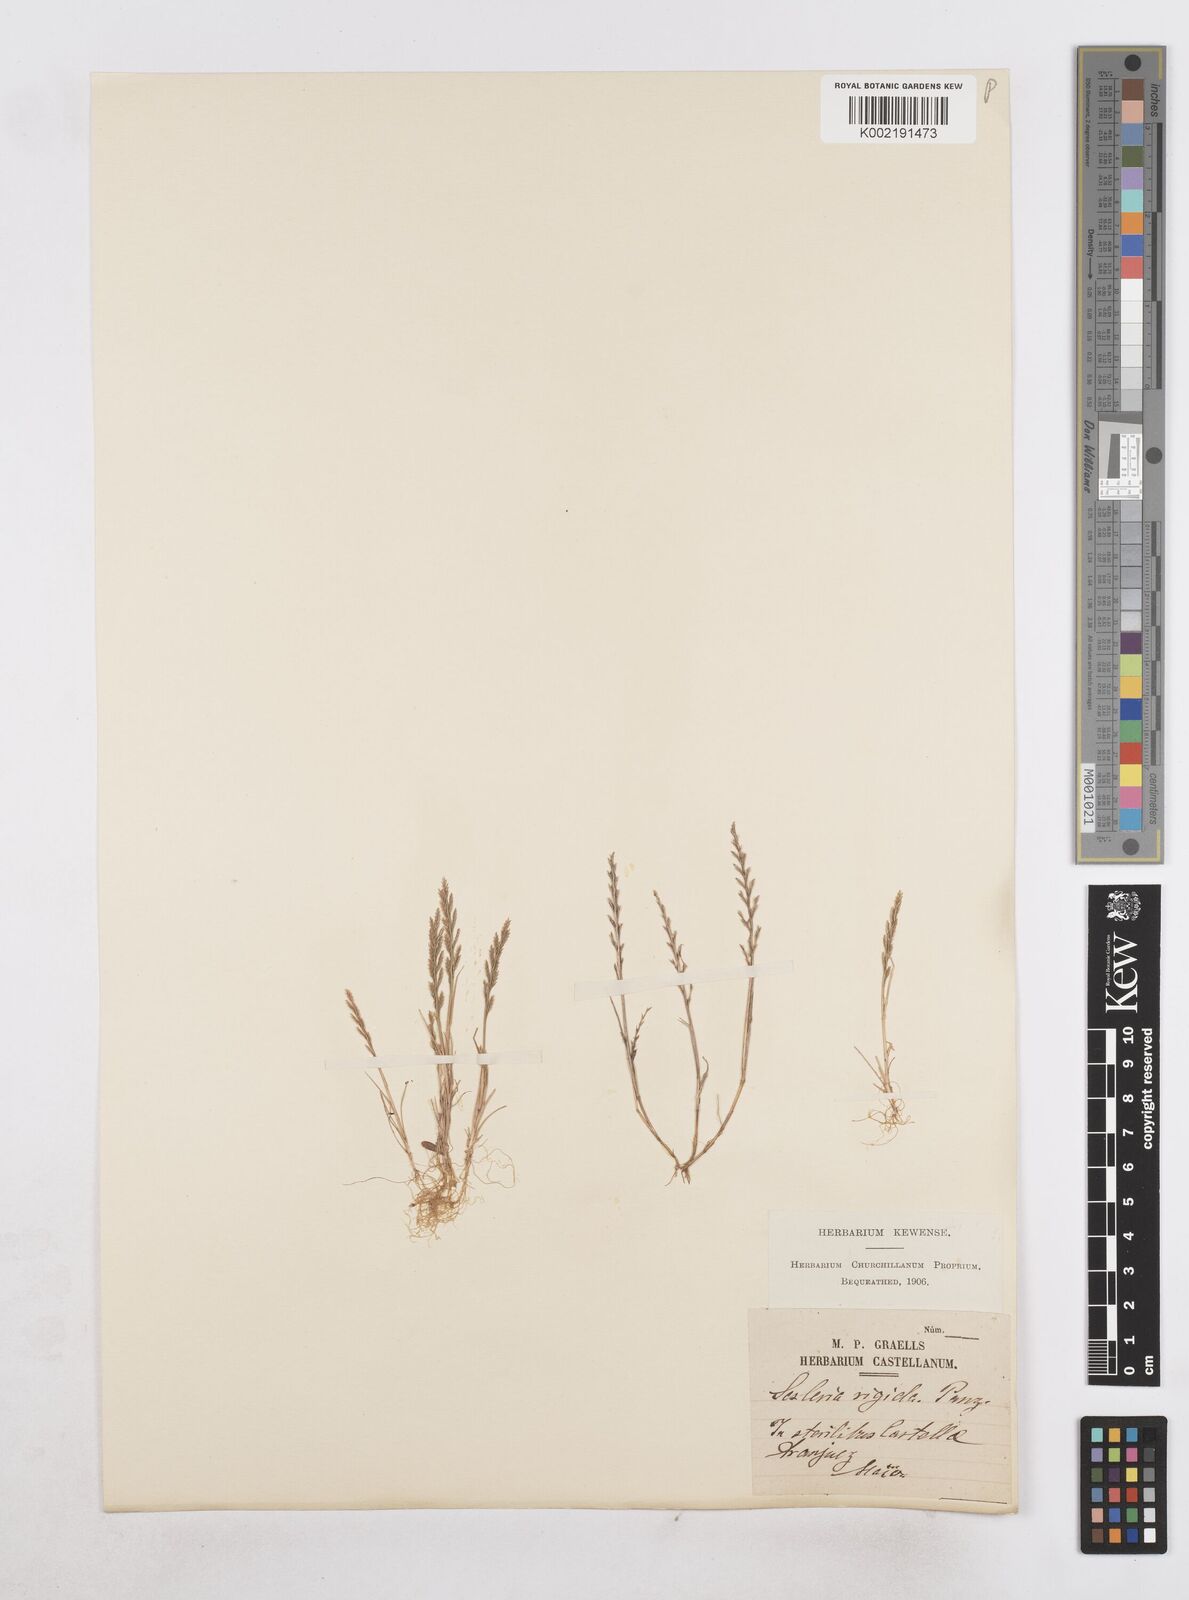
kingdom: Plantae
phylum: Tracheophyta
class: Liliopsida
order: Poales
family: Poaceae
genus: Catapodium
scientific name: Catapodium rigidum
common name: Fern-grass
